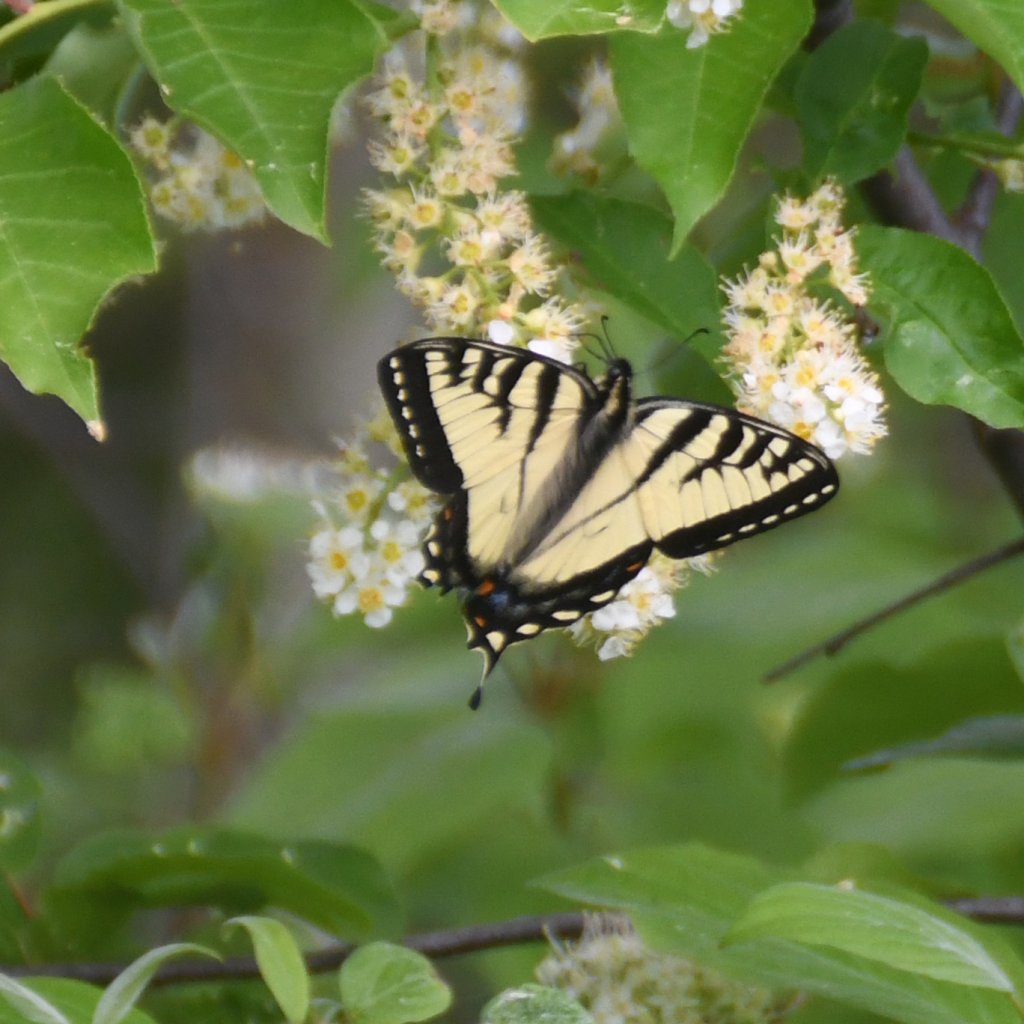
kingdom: Animalia
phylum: Arthropoda
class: Insecta
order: Lepidoptera
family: Papilionidae
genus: Pterourus
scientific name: Pterourus canadensis
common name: Canadian Tiger Swallowtail
